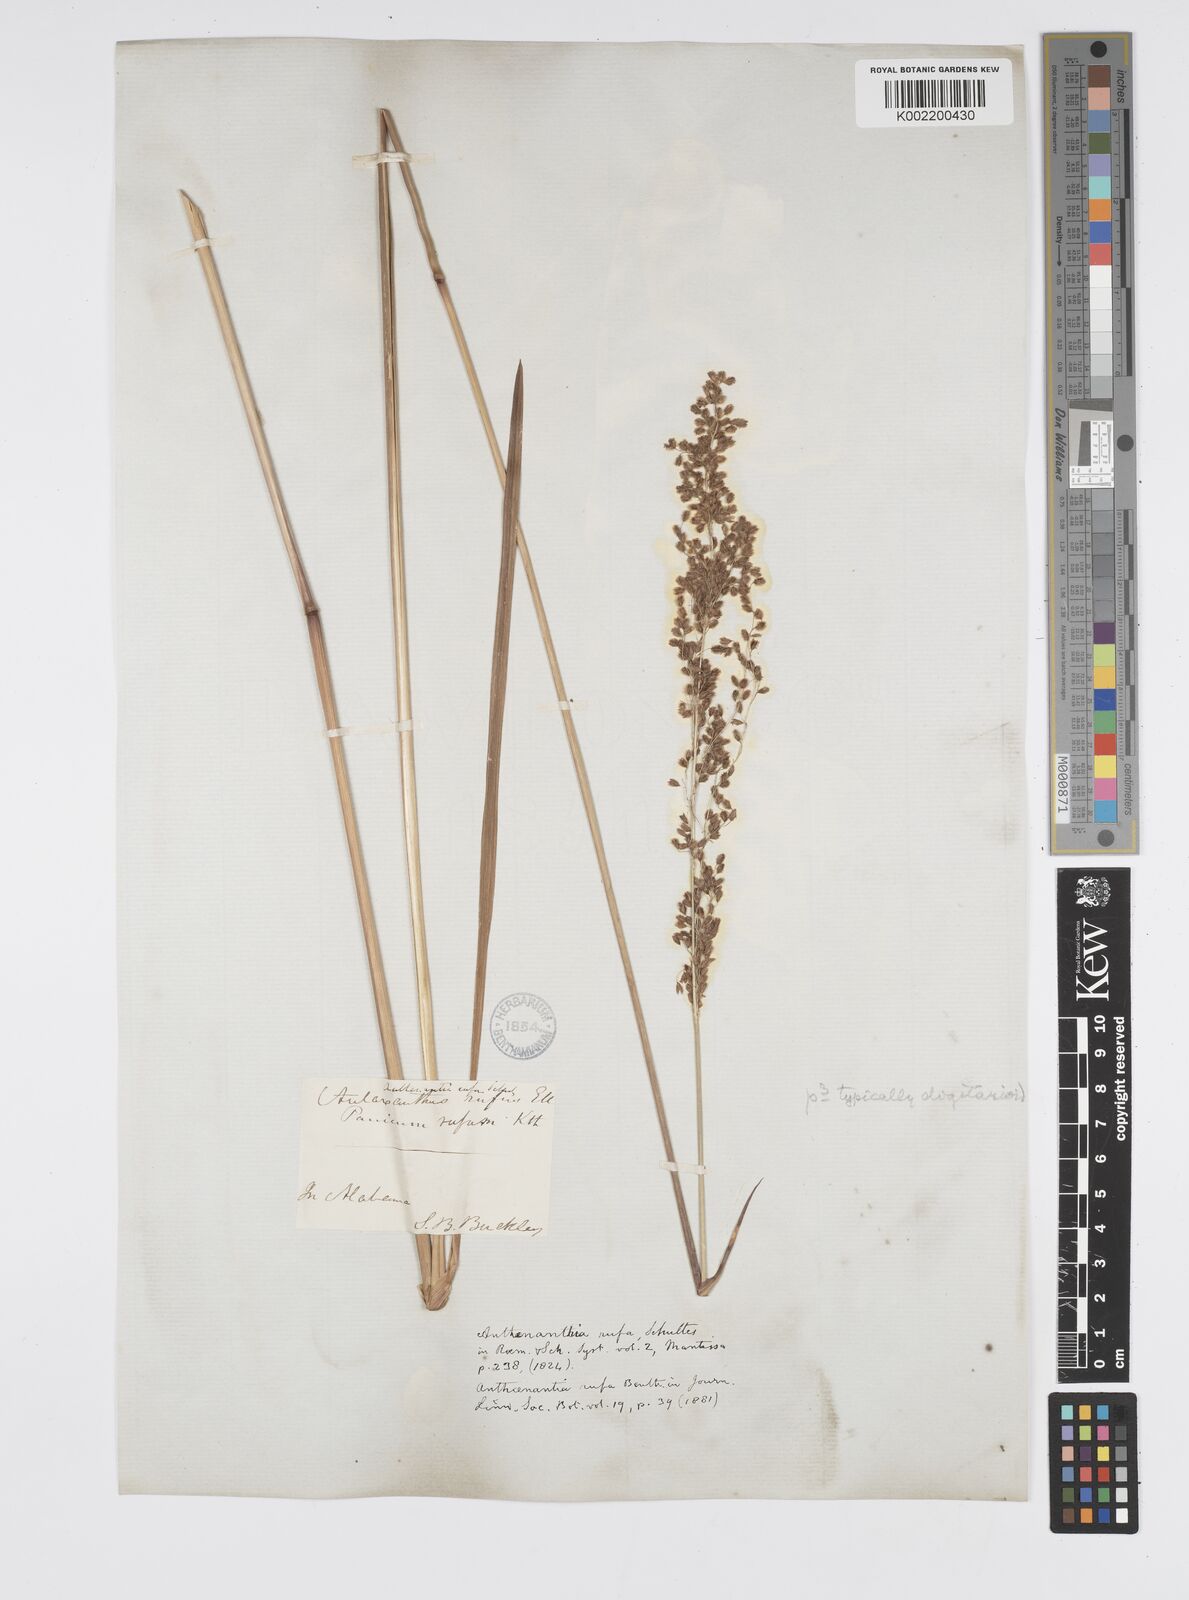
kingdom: Plantae
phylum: Tracheophyta
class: Liliopsida
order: Poales
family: Poaceae
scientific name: Poaceae
